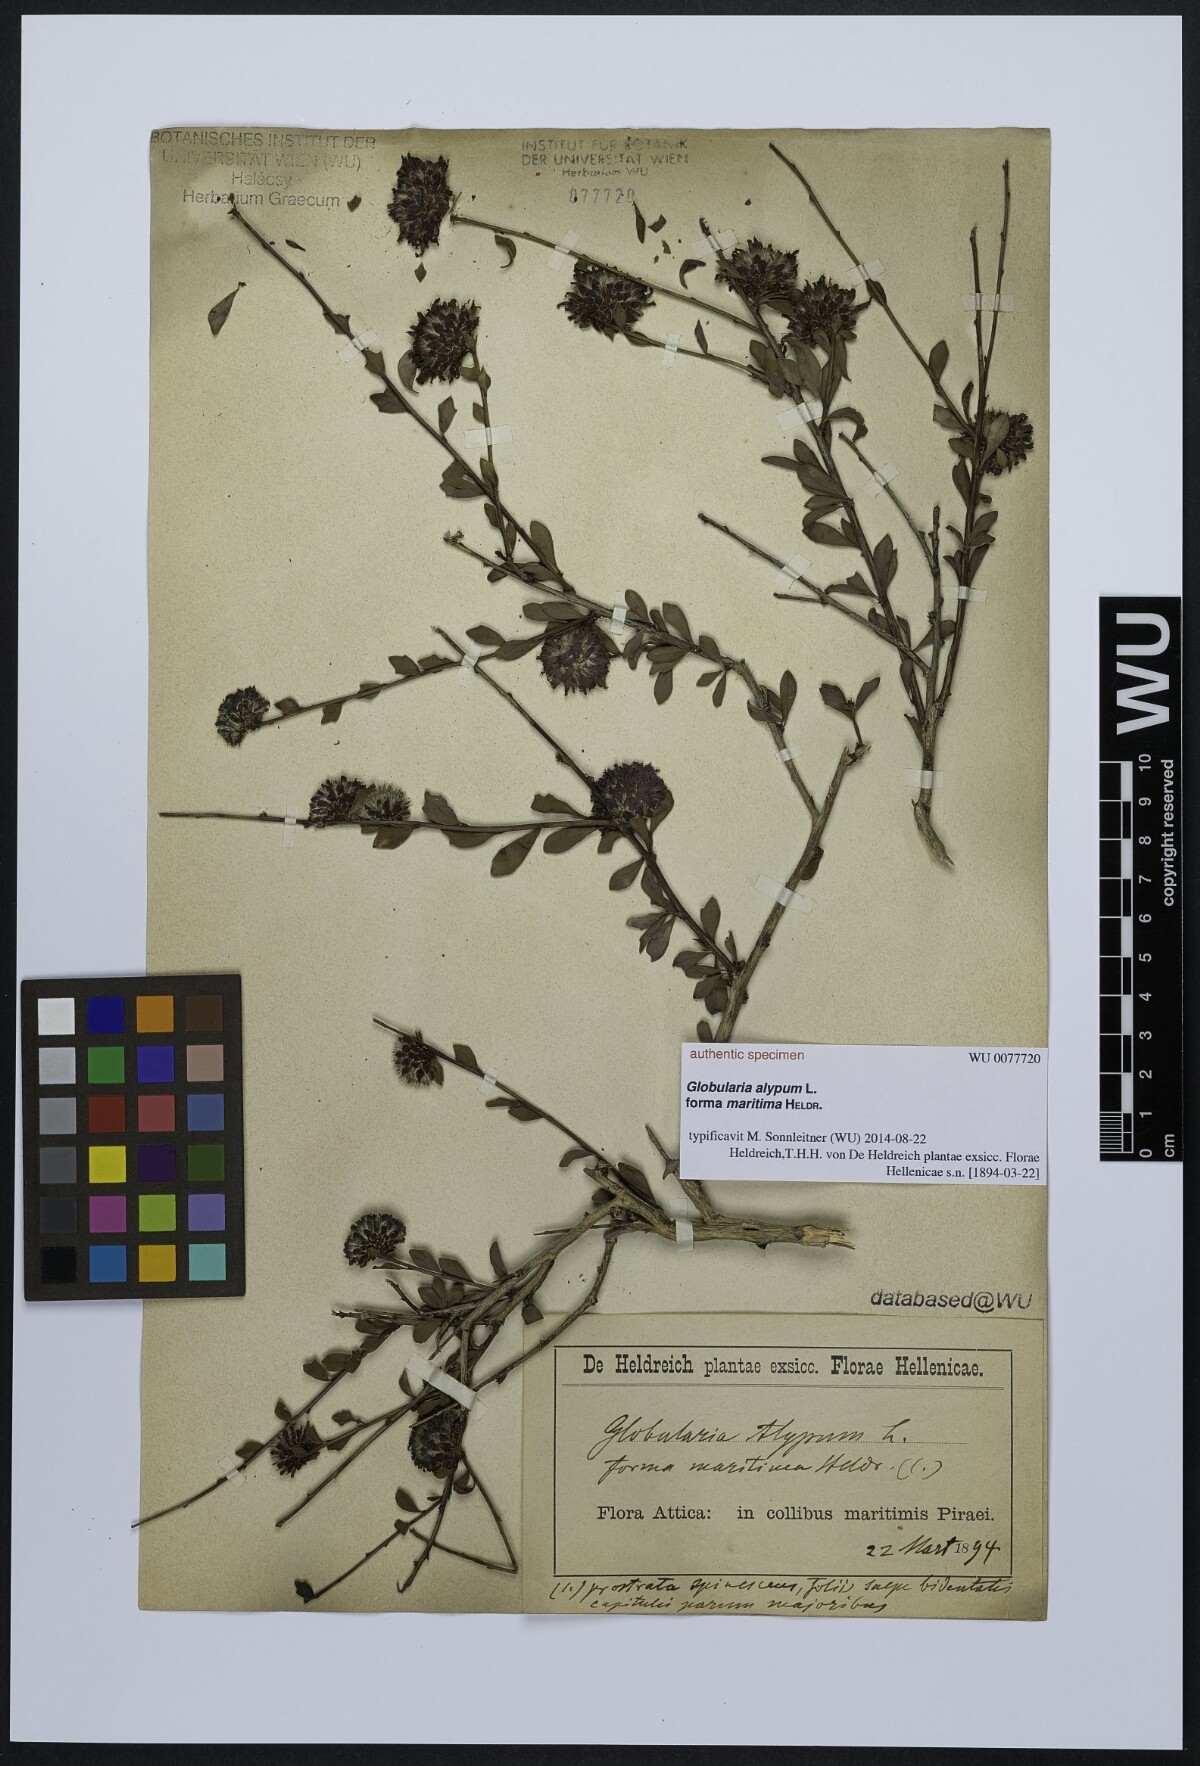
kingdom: Plantae
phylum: Tracheophyta
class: Magnoliopsida
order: Lamiales
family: Plantaginaceae
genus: Globularia
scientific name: Globularia alypum
